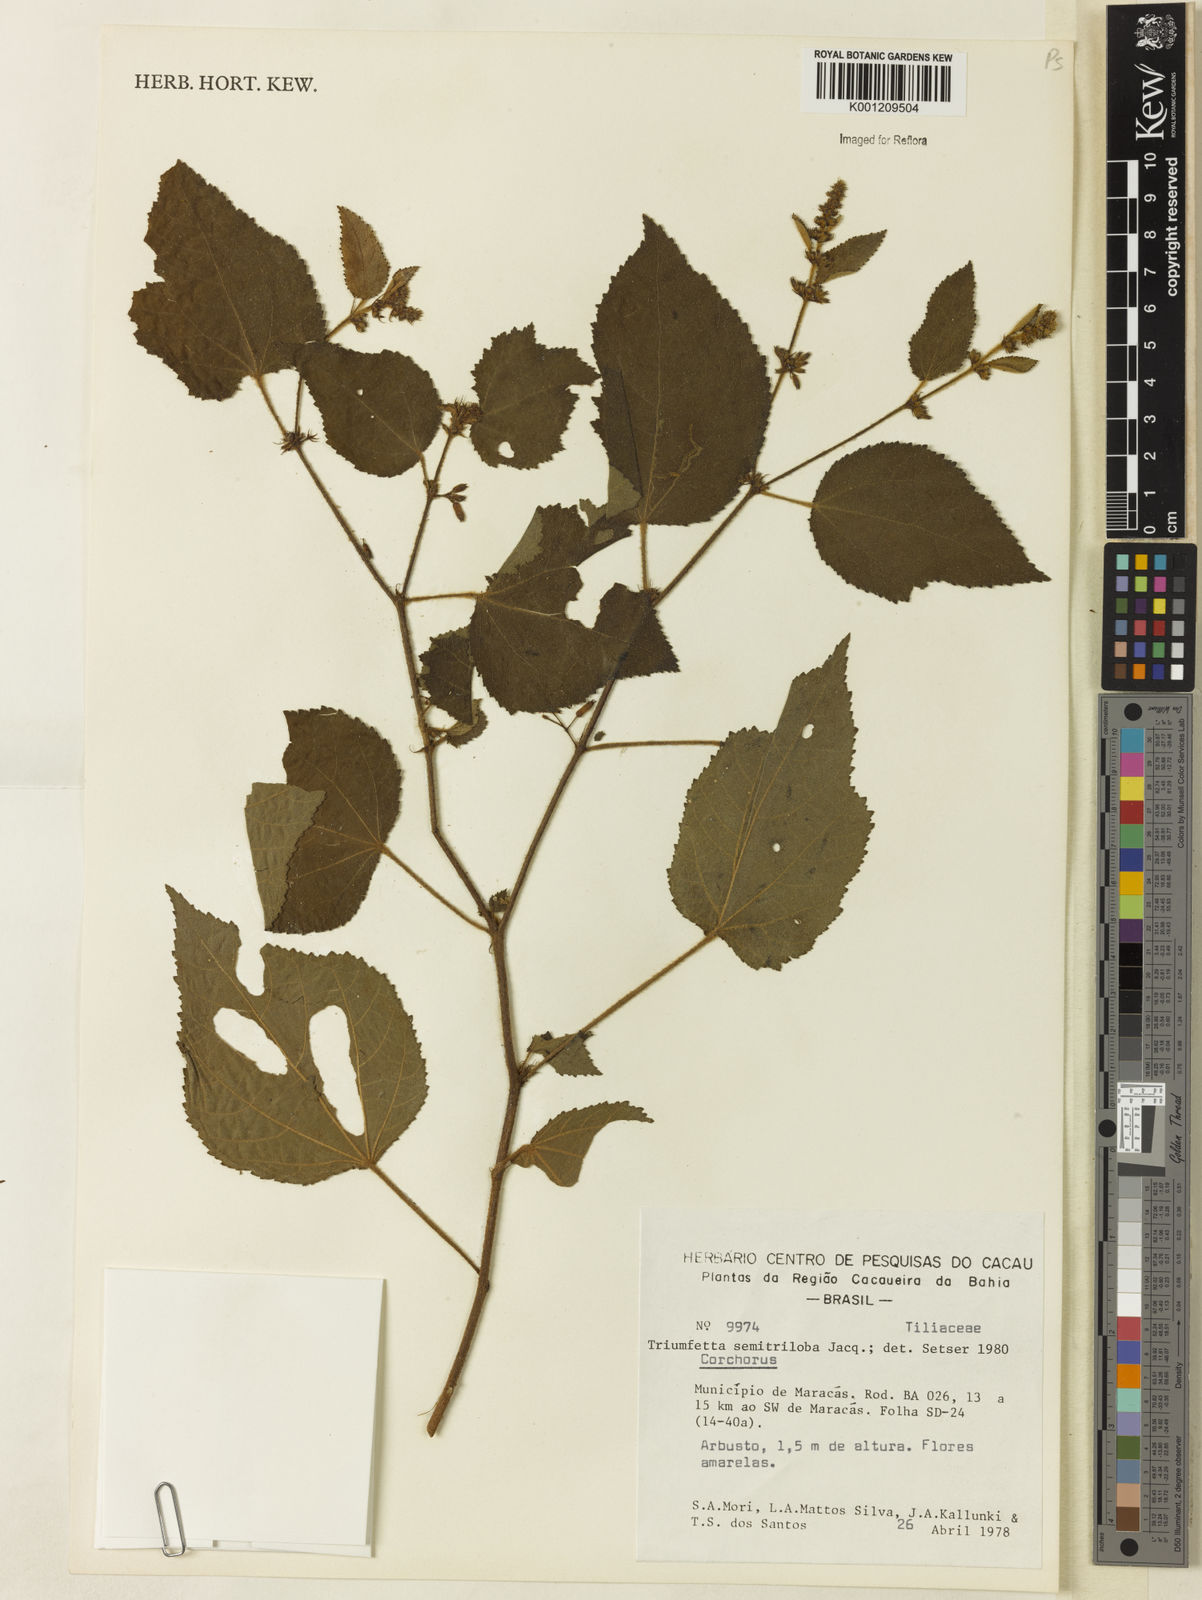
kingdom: Plantae
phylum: Tracheophyta
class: Magnoliopsida
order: Malvales
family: Malvaceae
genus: Triumfetta
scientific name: Triumfetta semitriloba
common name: Sacramento burbark
